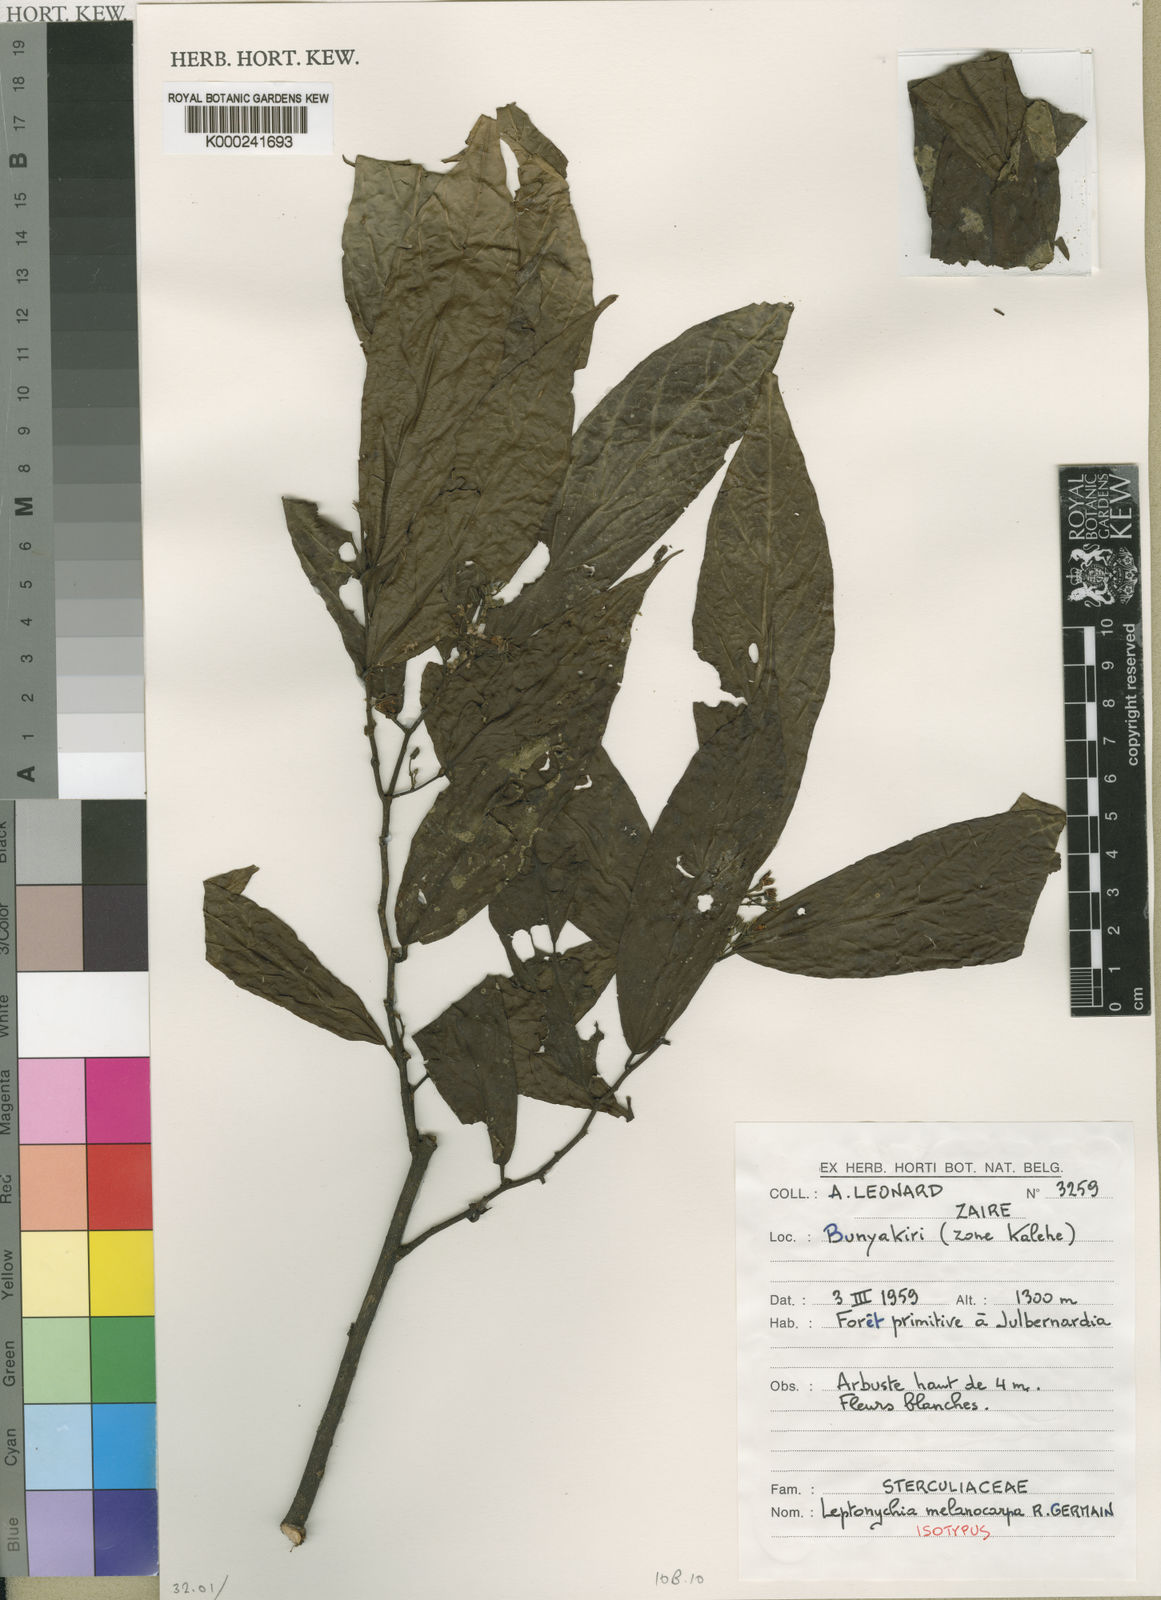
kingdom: Plantae
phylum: Tracheophyta
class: Magnoliopsida
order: Malvales
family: Malvaceae
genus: Leptonychia
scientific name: Leptonychia melanocarpa
